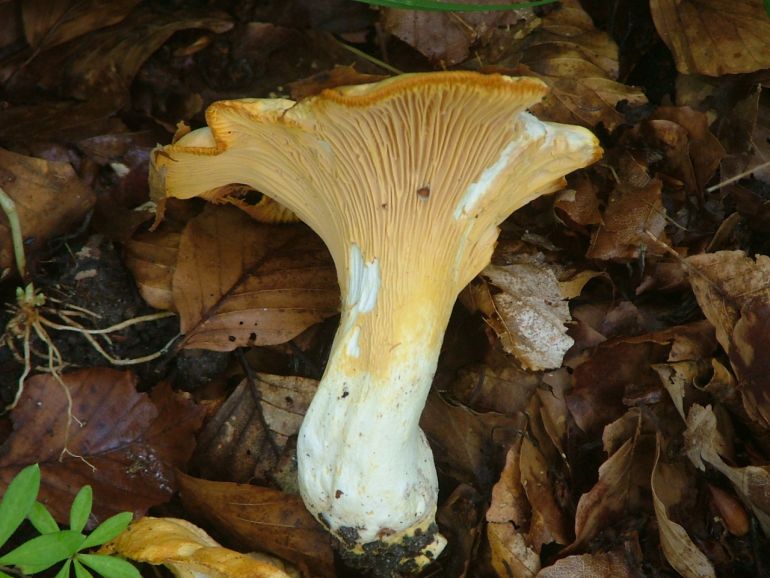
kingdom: Fungi
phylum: Basidiomycota
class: Agaricomycetes
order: Cantharellales
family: Hydnaceae
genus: Cantharellus
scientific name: Cantharellus pallens
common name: bleg kantarel
